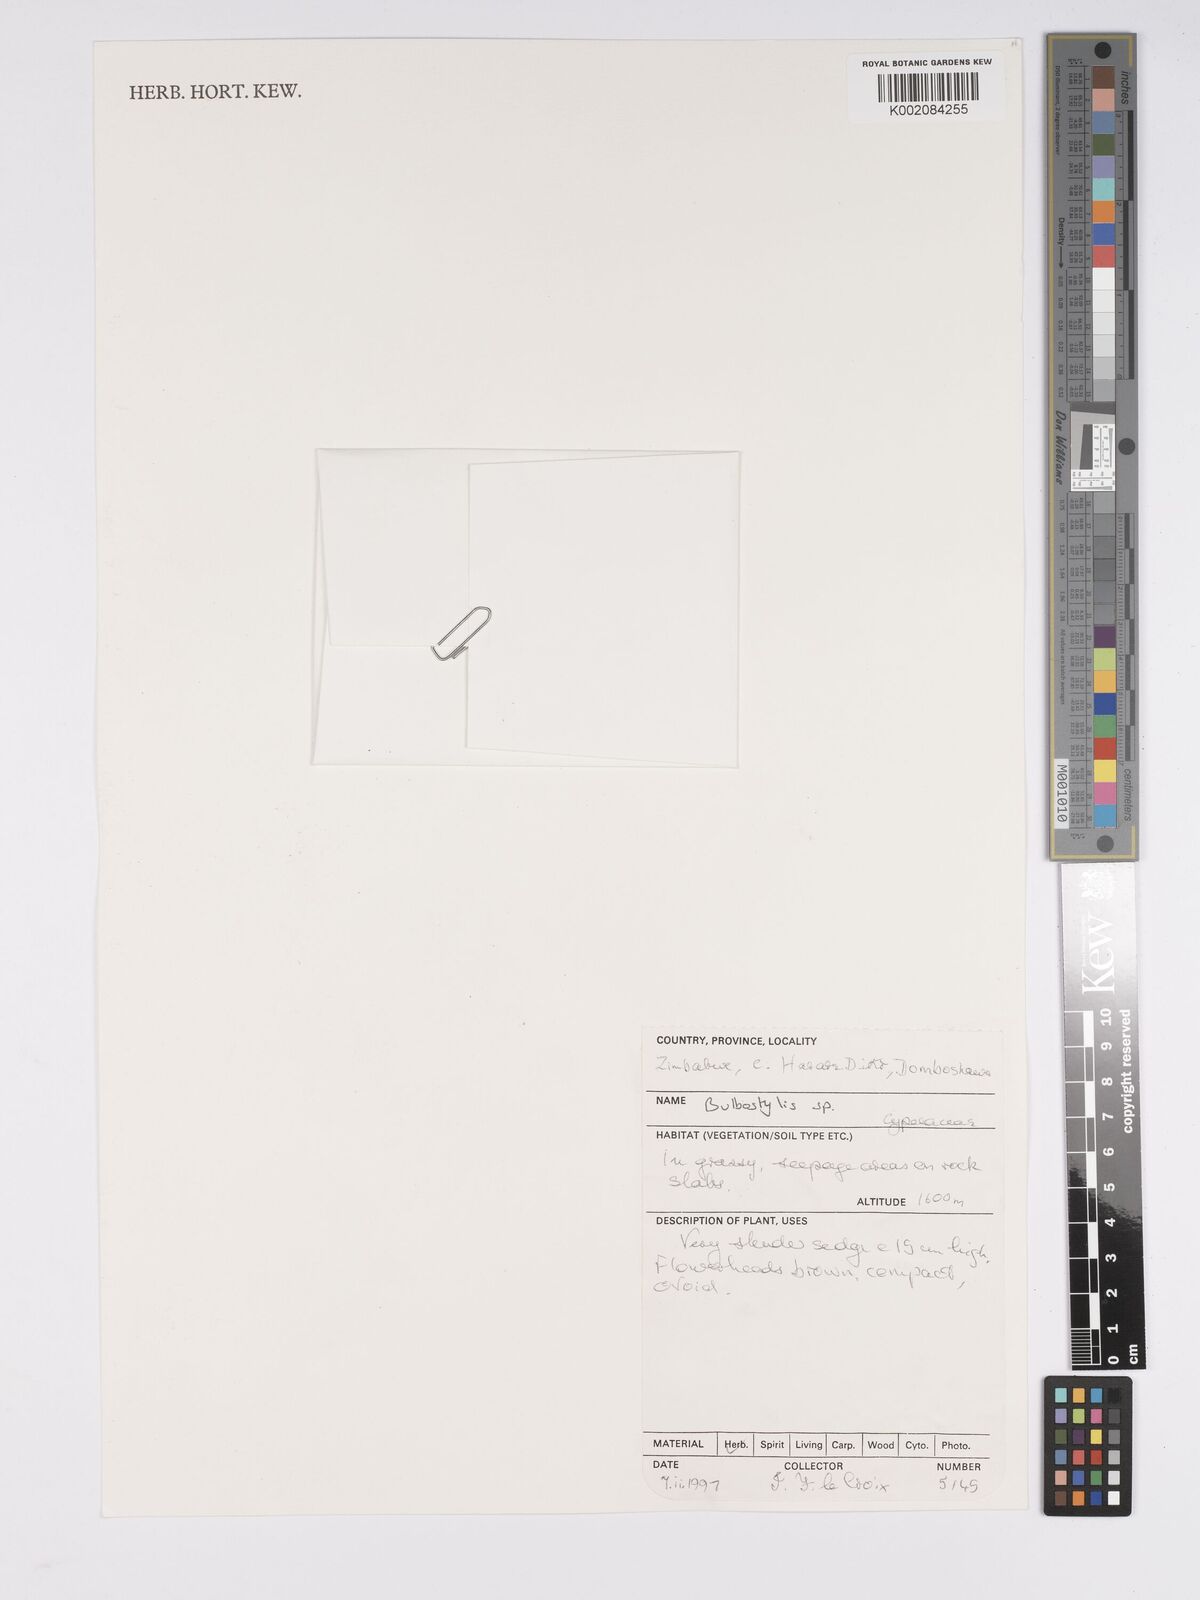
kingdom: Plantae
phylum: Tracheophyta
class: Liliopsida
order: Poales
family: Cyperaceae
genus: Bulbostylis
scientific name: Bulbostylis
